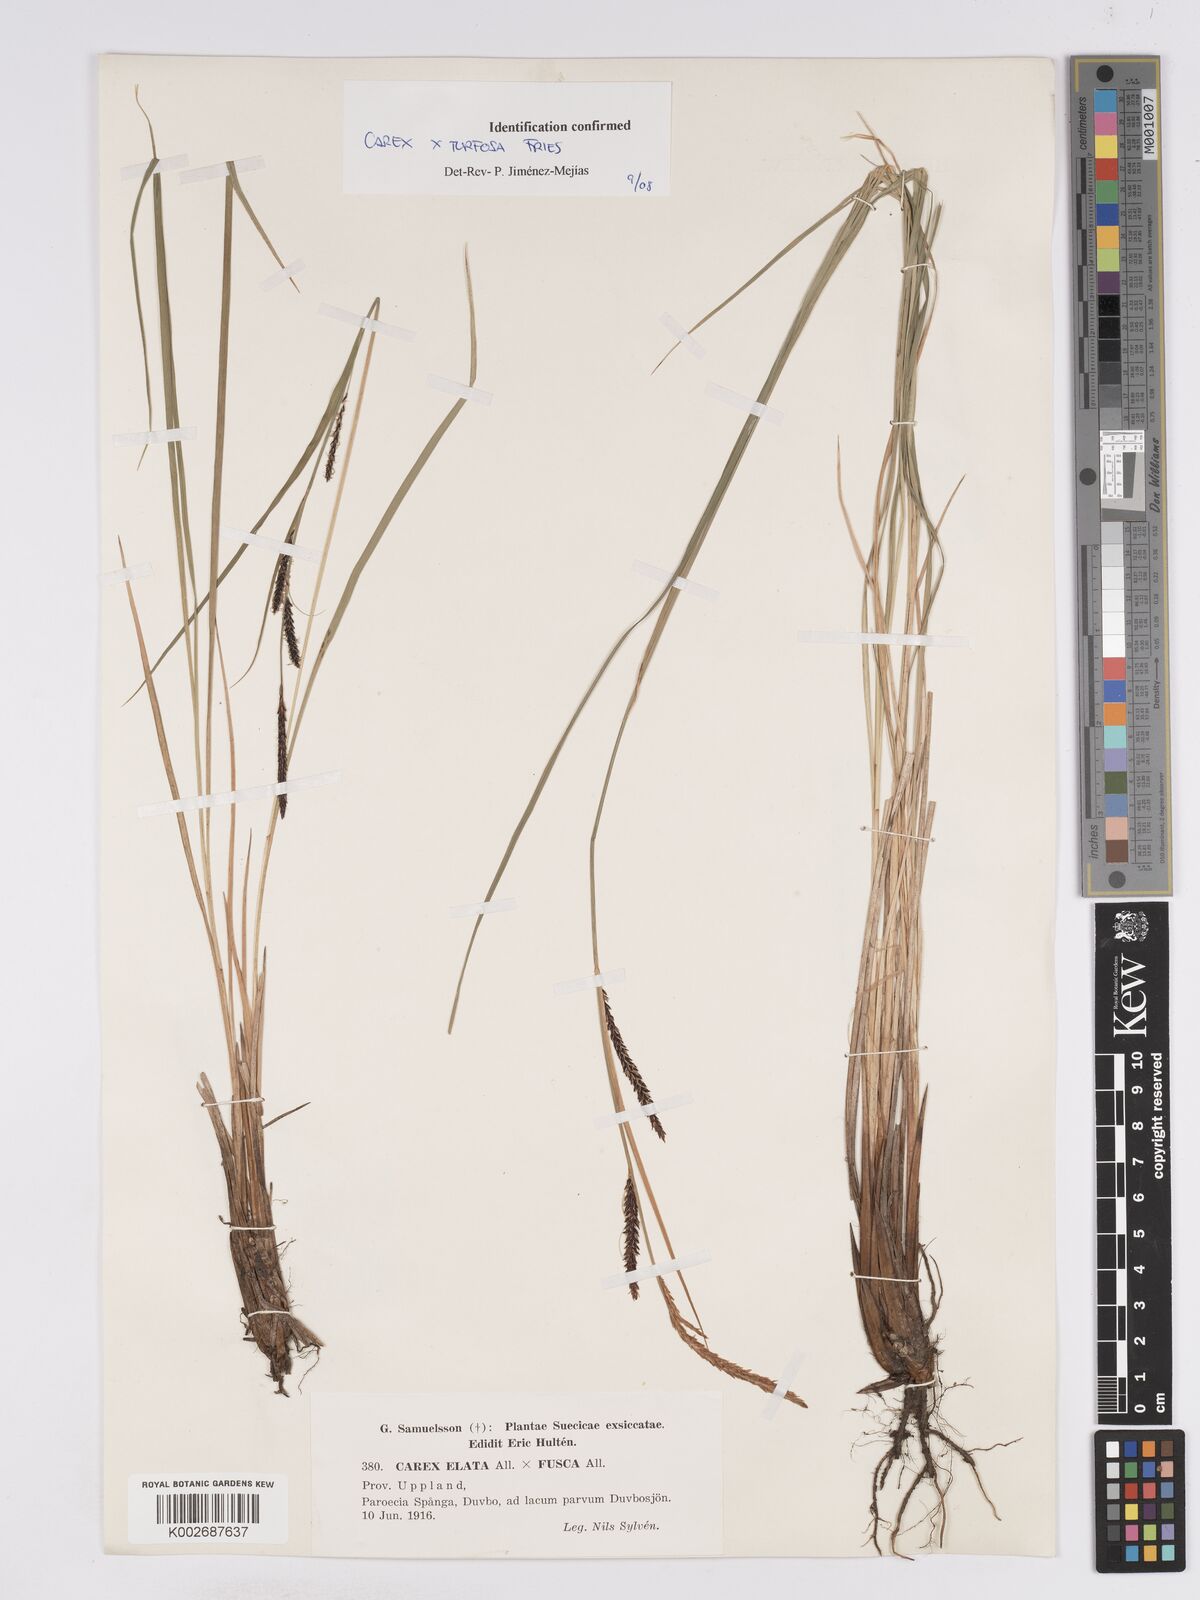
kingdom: Plantae
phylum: Tracheophyta
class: Liliopsida
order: Poales
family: Cyperaceae
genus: Carex
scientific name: Carex nigra
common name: Common sedge
